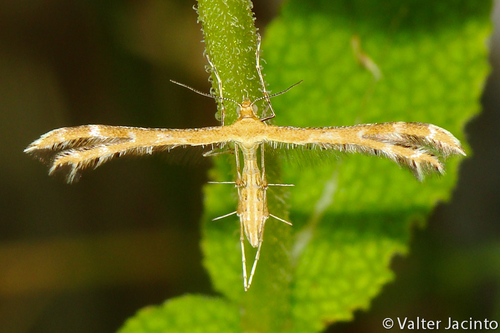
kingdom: Animalia
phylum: Arthropoda
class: Insecta
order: Lepidoptera
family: Pterophoridae
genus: Crombrugghia
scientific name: Crombrugghia laetus
